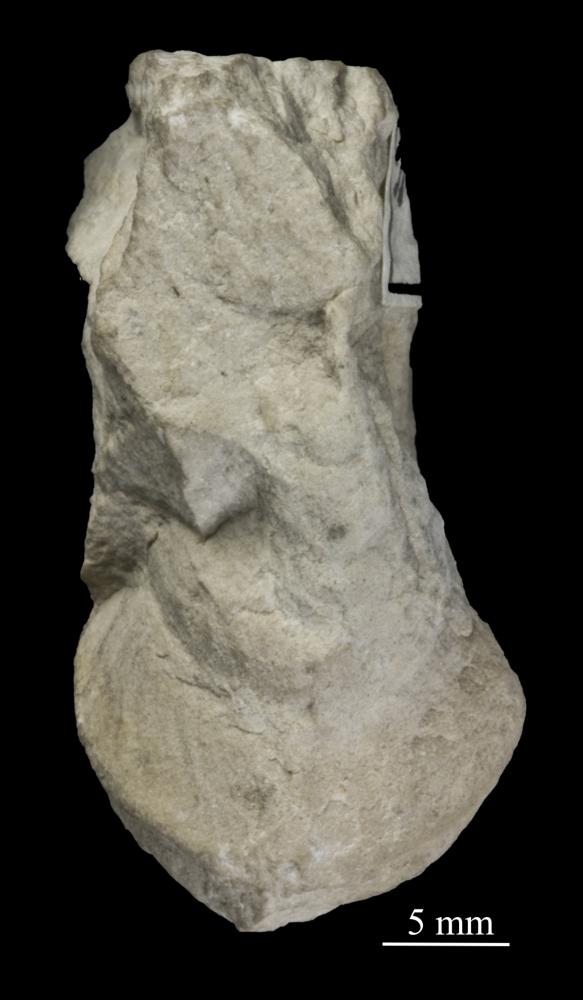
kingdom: Animalia
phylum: Mollusca
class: Gastropoda
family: Lophospiridae
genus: Loxoplocus
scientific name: Loxoplocus Turbo silurica
